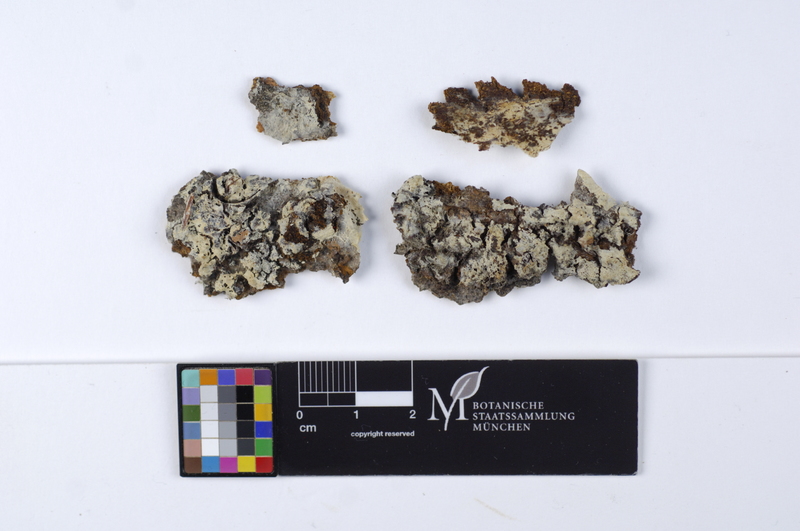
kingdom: Fungi
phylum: Basidiomycota
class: Agaricomycetes
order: Corticiales
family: Corticiaceae
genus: Mycobernardia
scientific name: Mycobernardia incrustans
